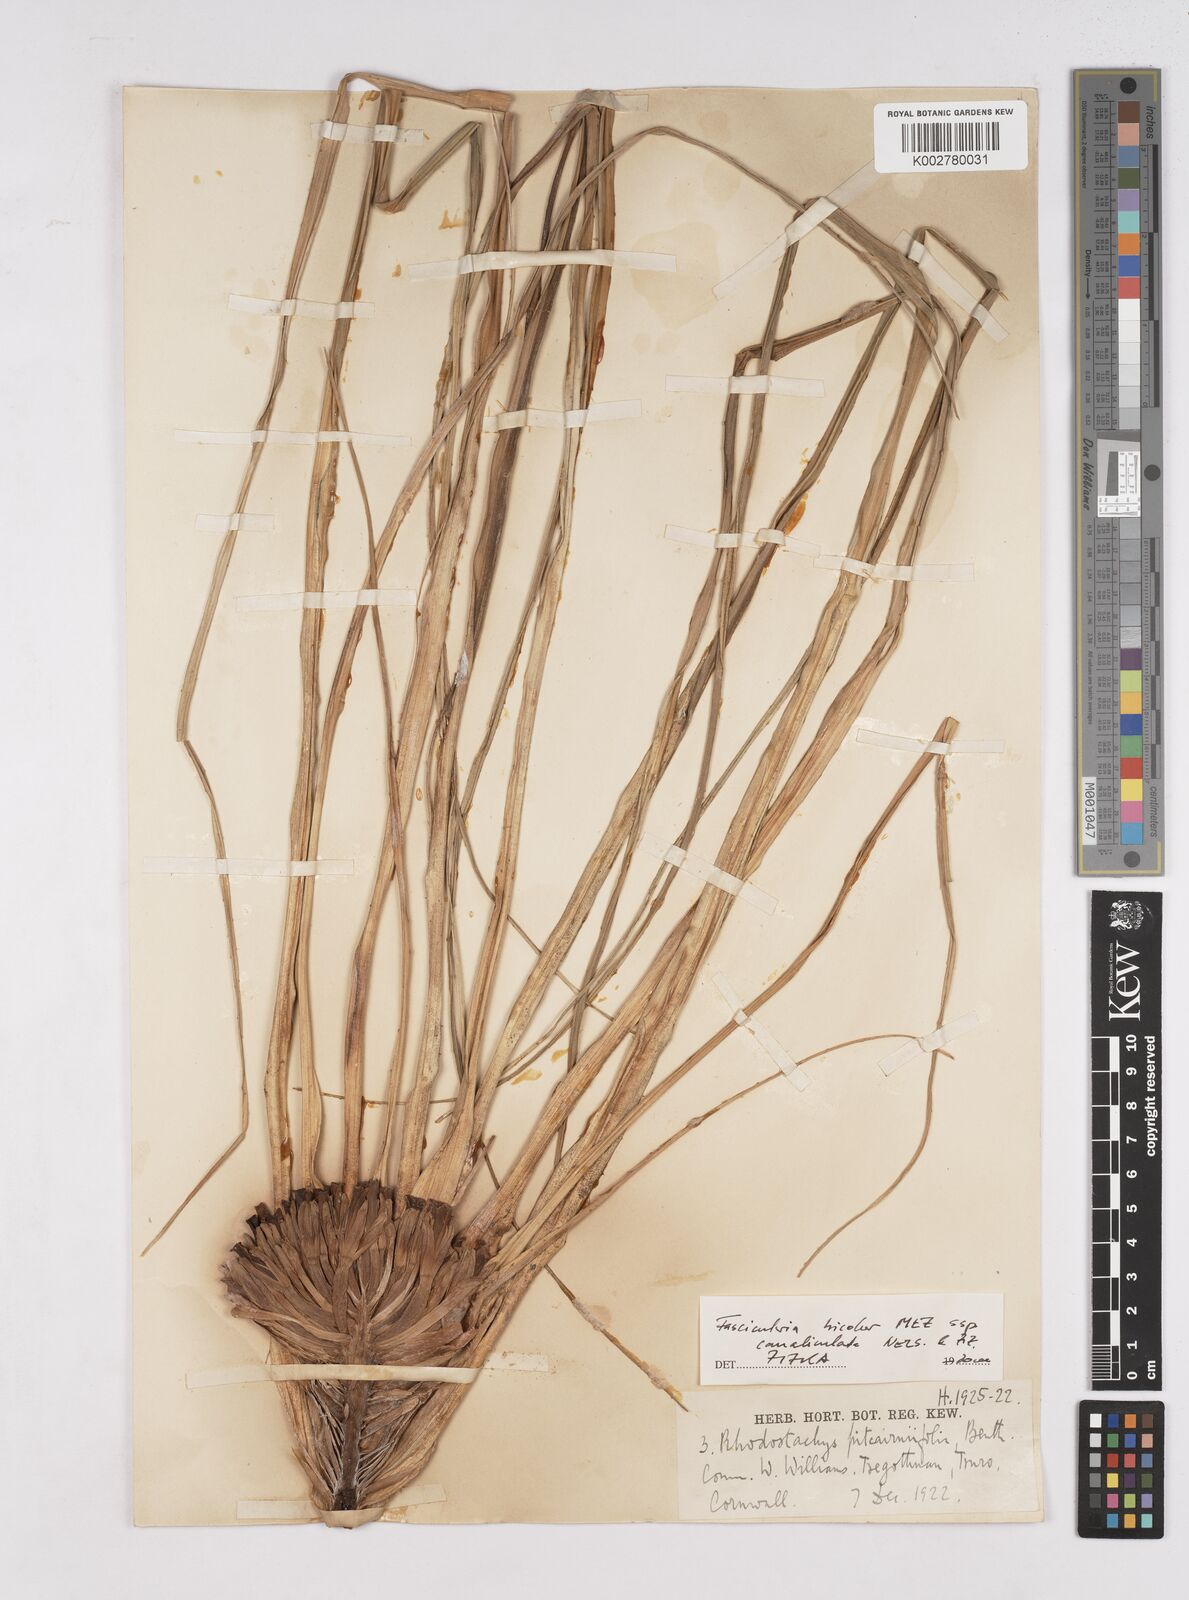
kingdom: Plantae
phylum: Tracheophyta
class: Liliopsida
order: Poales
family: Bromeliaceae
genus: Hechtia
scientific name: Hechtia pitcairniifolia
